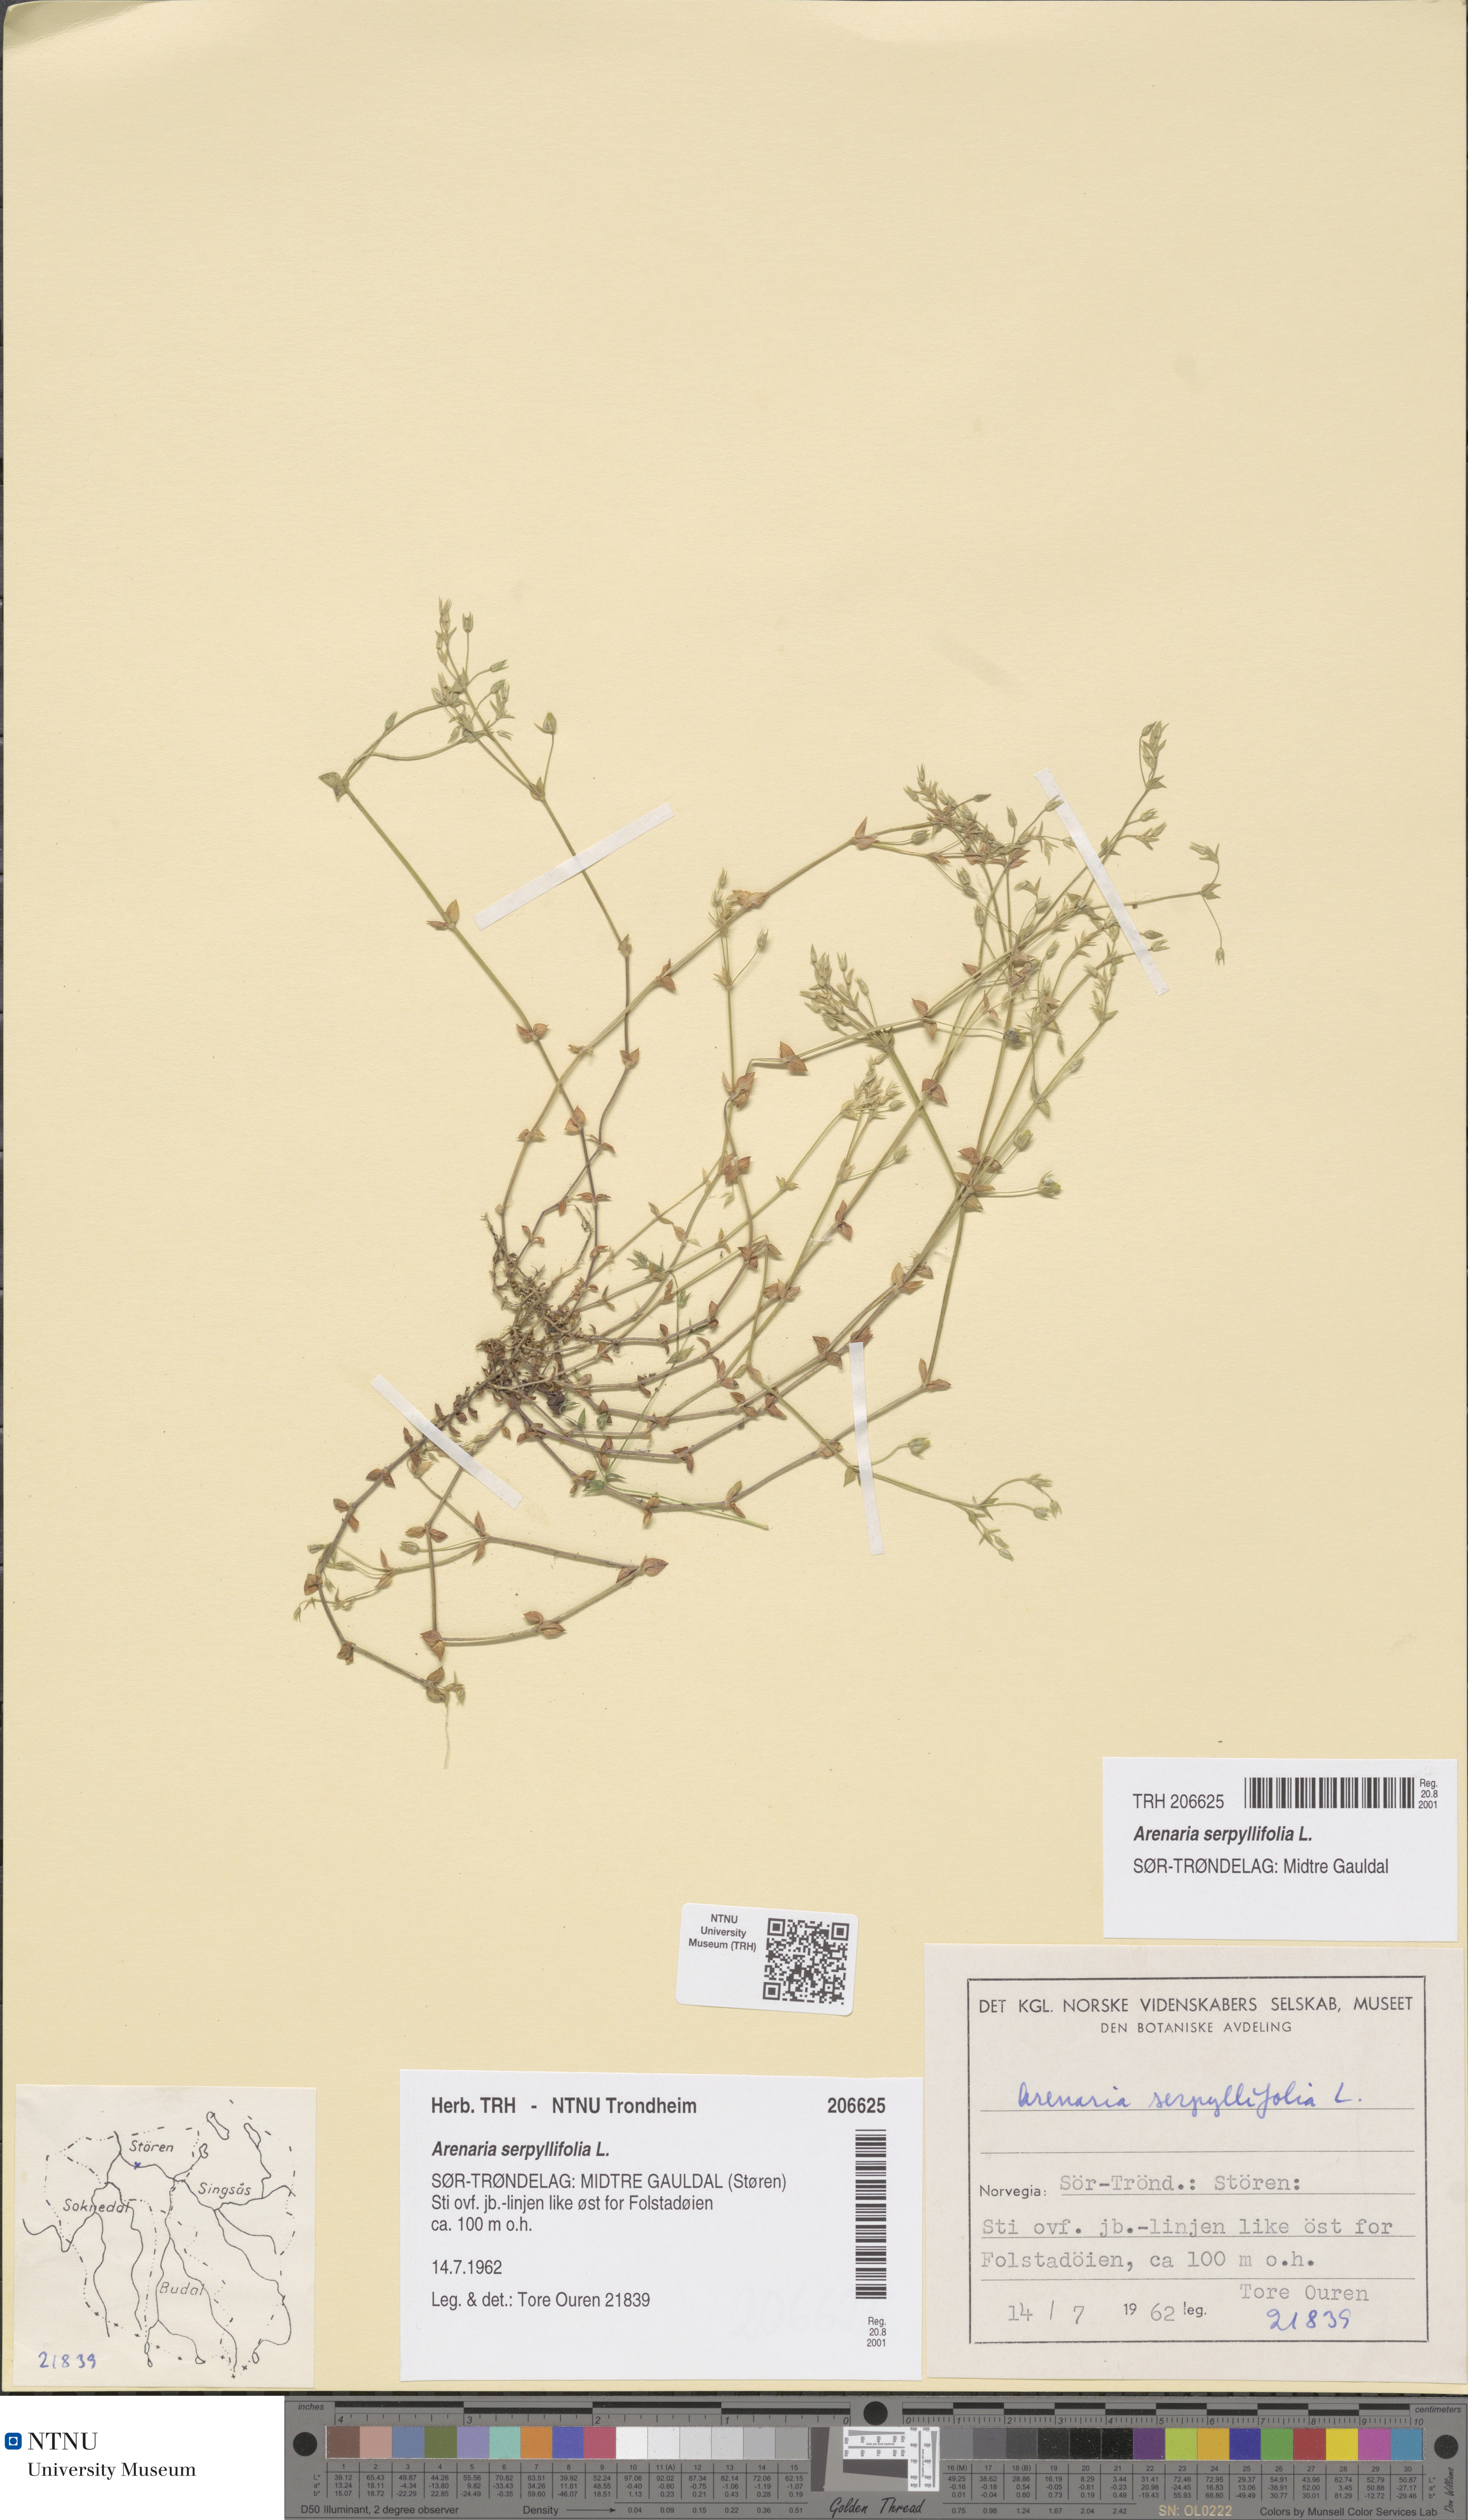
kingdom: Plantae
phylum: Tracheophyta
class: Magnoliopsida
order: Caryophyllales
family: Caryophyllaceae
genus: Arenaria
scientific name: Arenaria serpyllifolia
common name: Thyme-leaved sandwort
